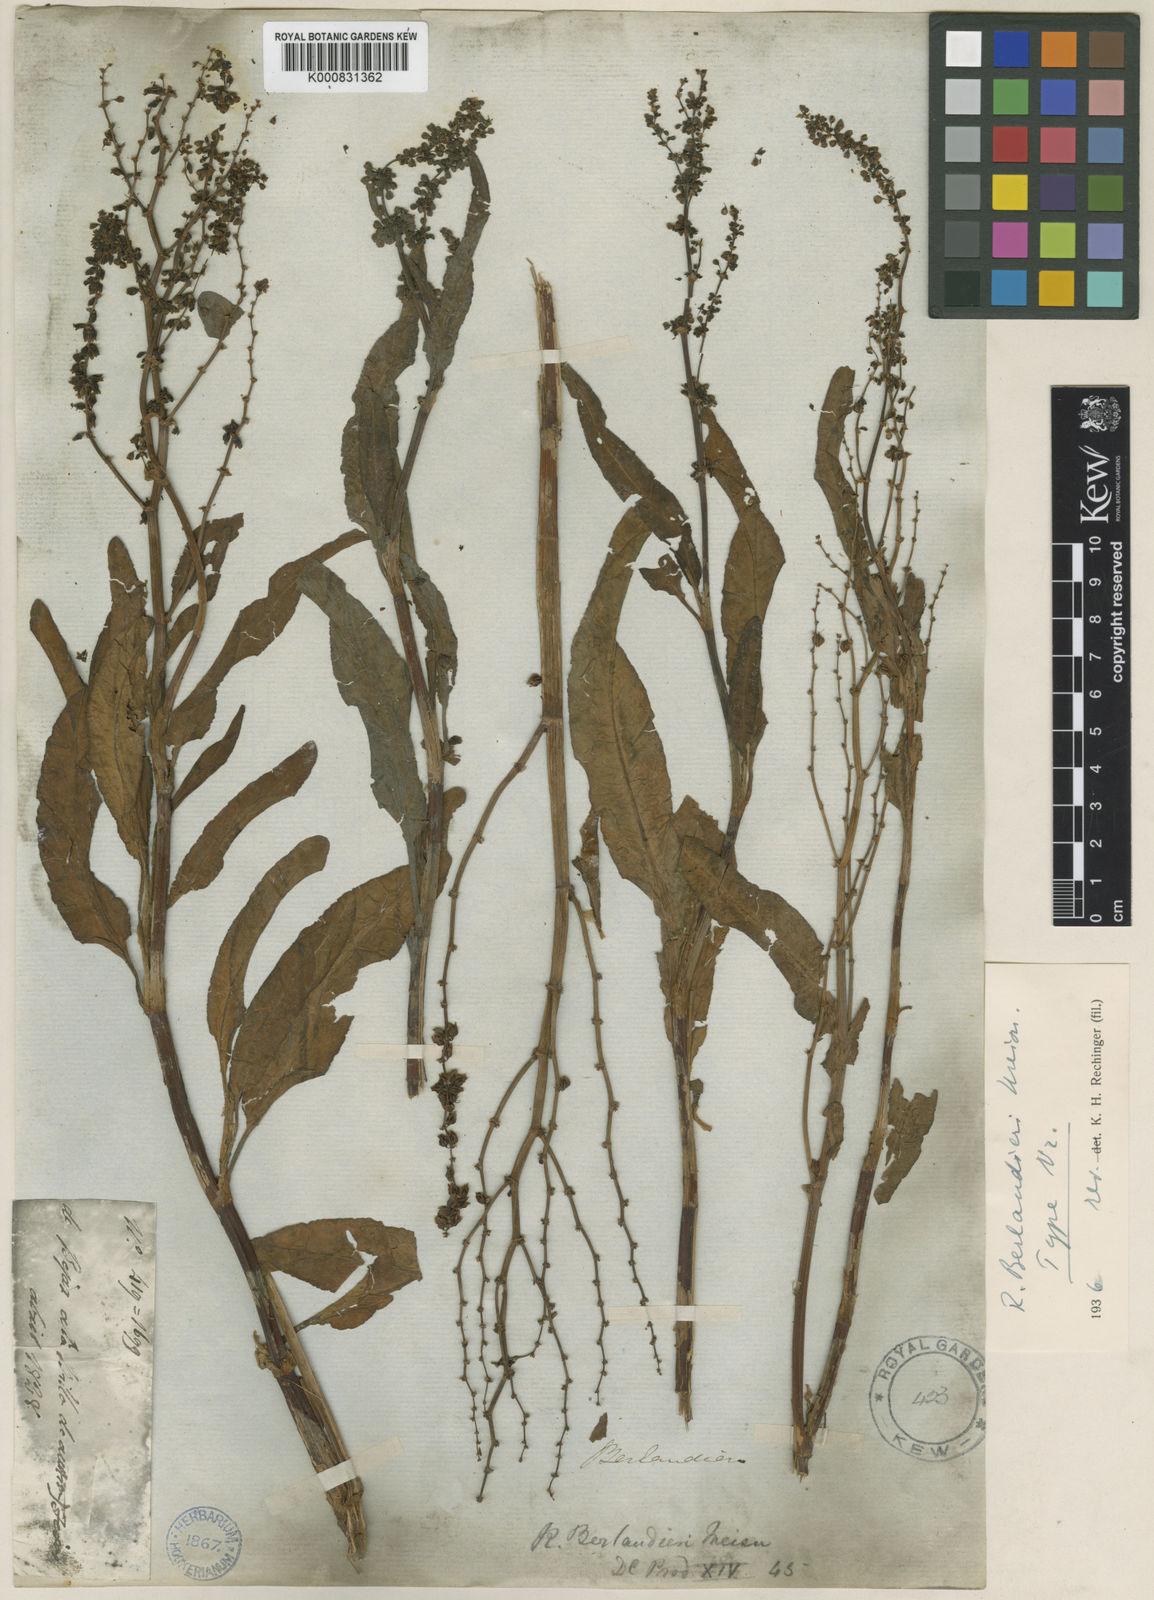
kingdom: Plantae
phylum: Tracheophyta
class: Magnoliopsida
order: Caryophyllales
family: Polygonaceae
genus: Rumex
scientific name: Rumex chrysocarpus
